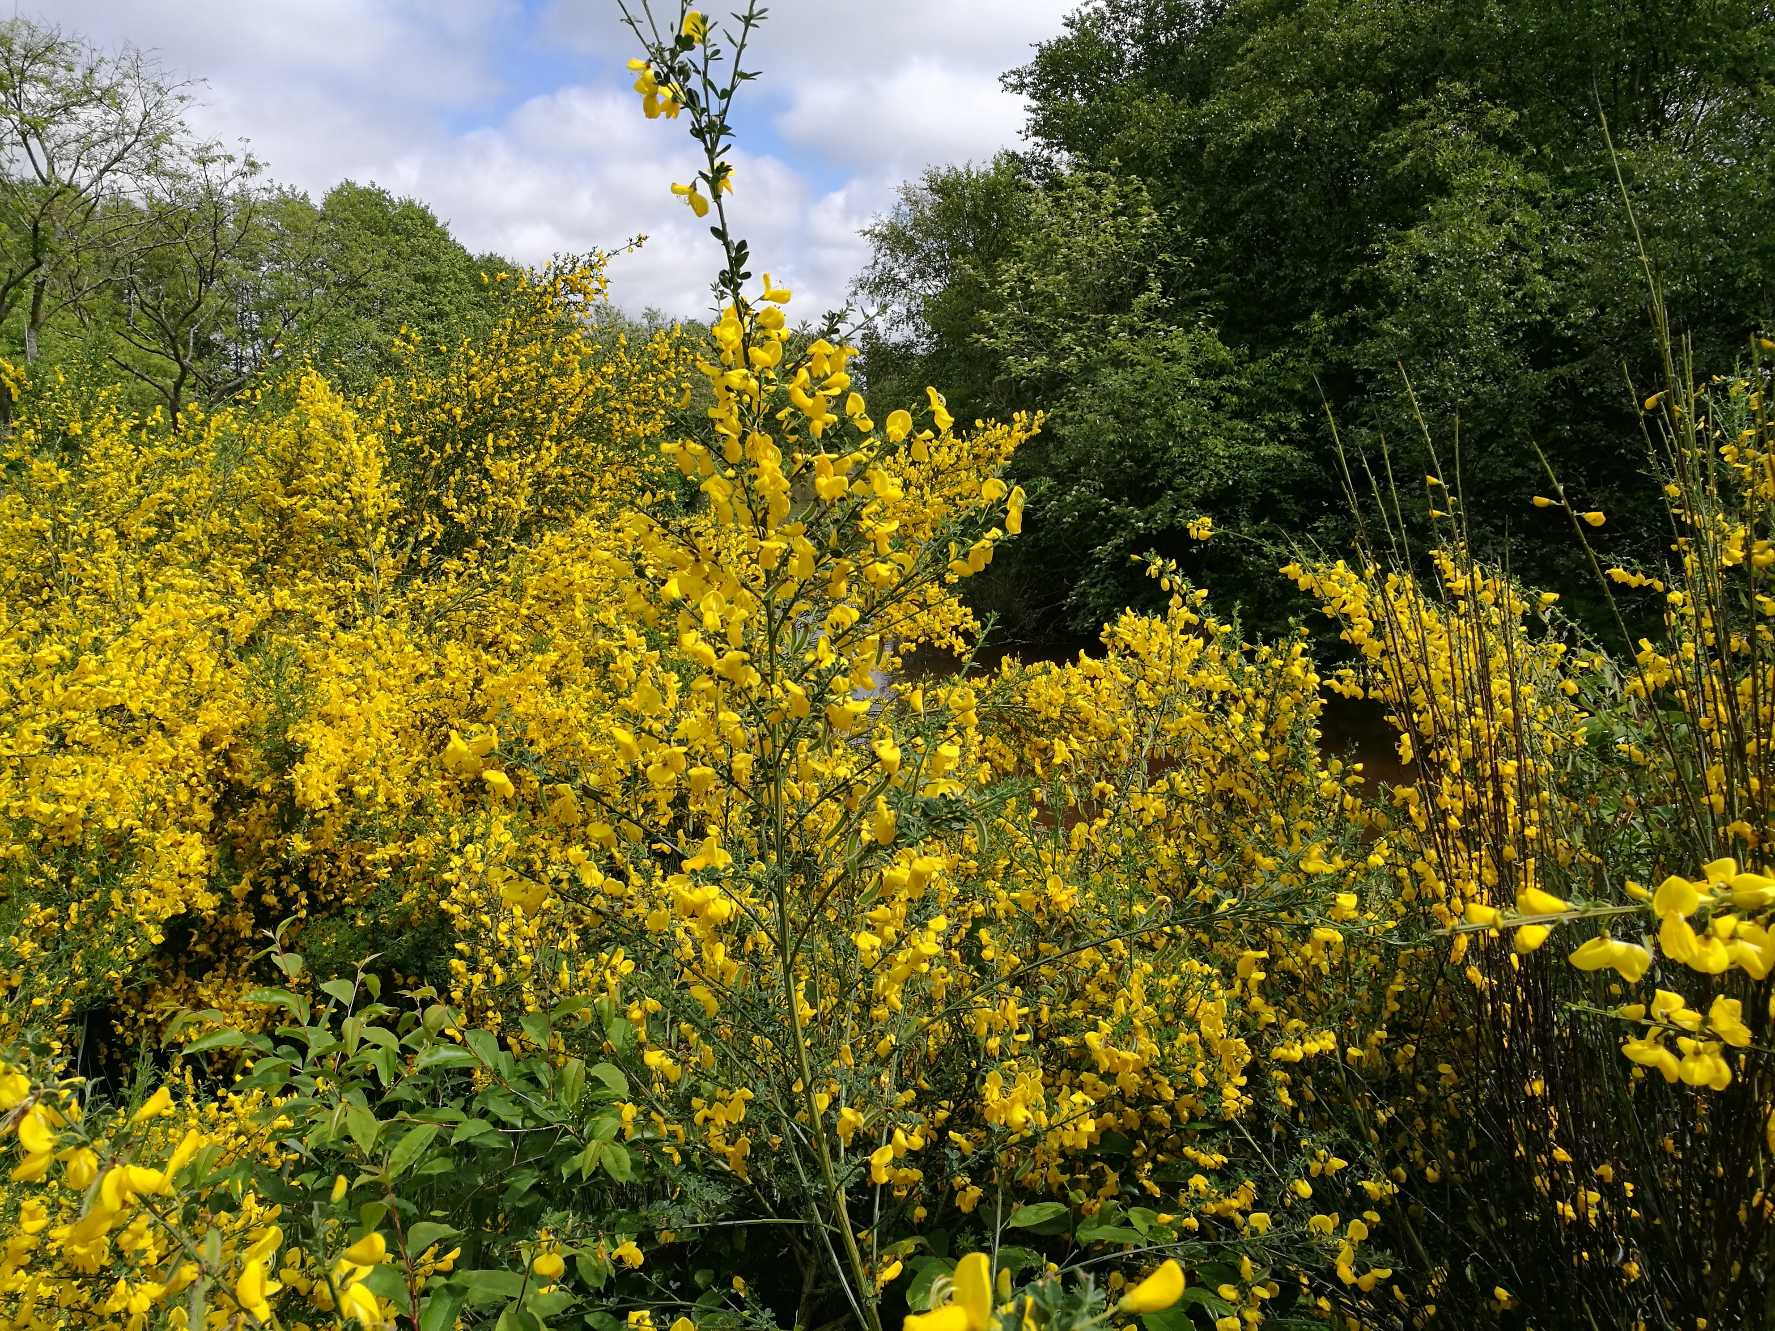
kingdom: Plantae
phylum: Tracheophyta
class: Magnoliopsida
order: Fabales
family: Fabaceae
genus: Cytisus
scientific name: Cytisus scoparius
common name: Almindelig gyvel
